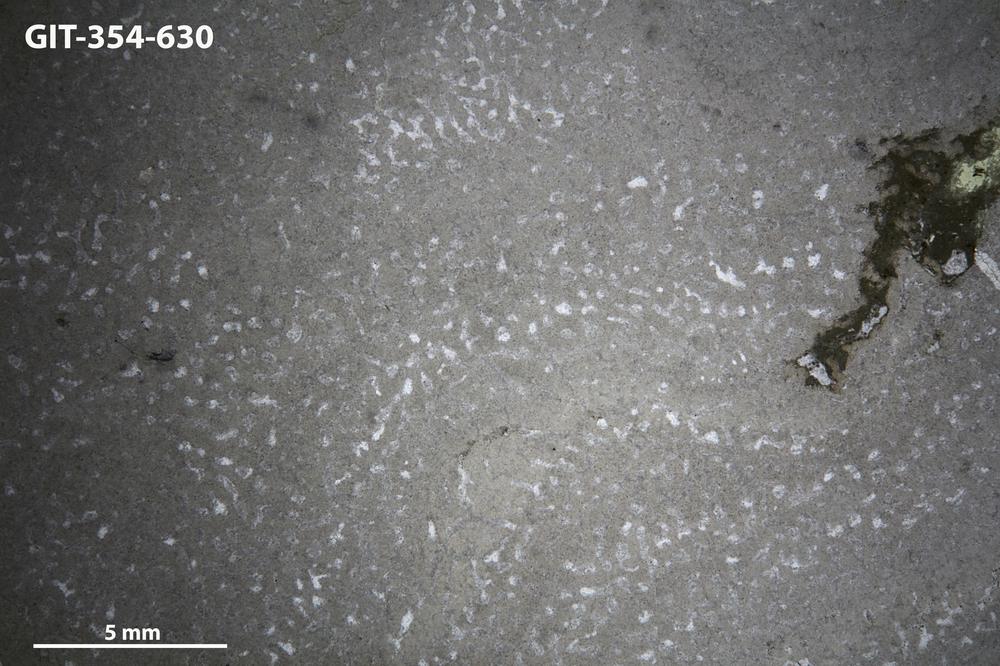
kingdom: Animalia
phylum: Porifera
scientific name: Porifera
